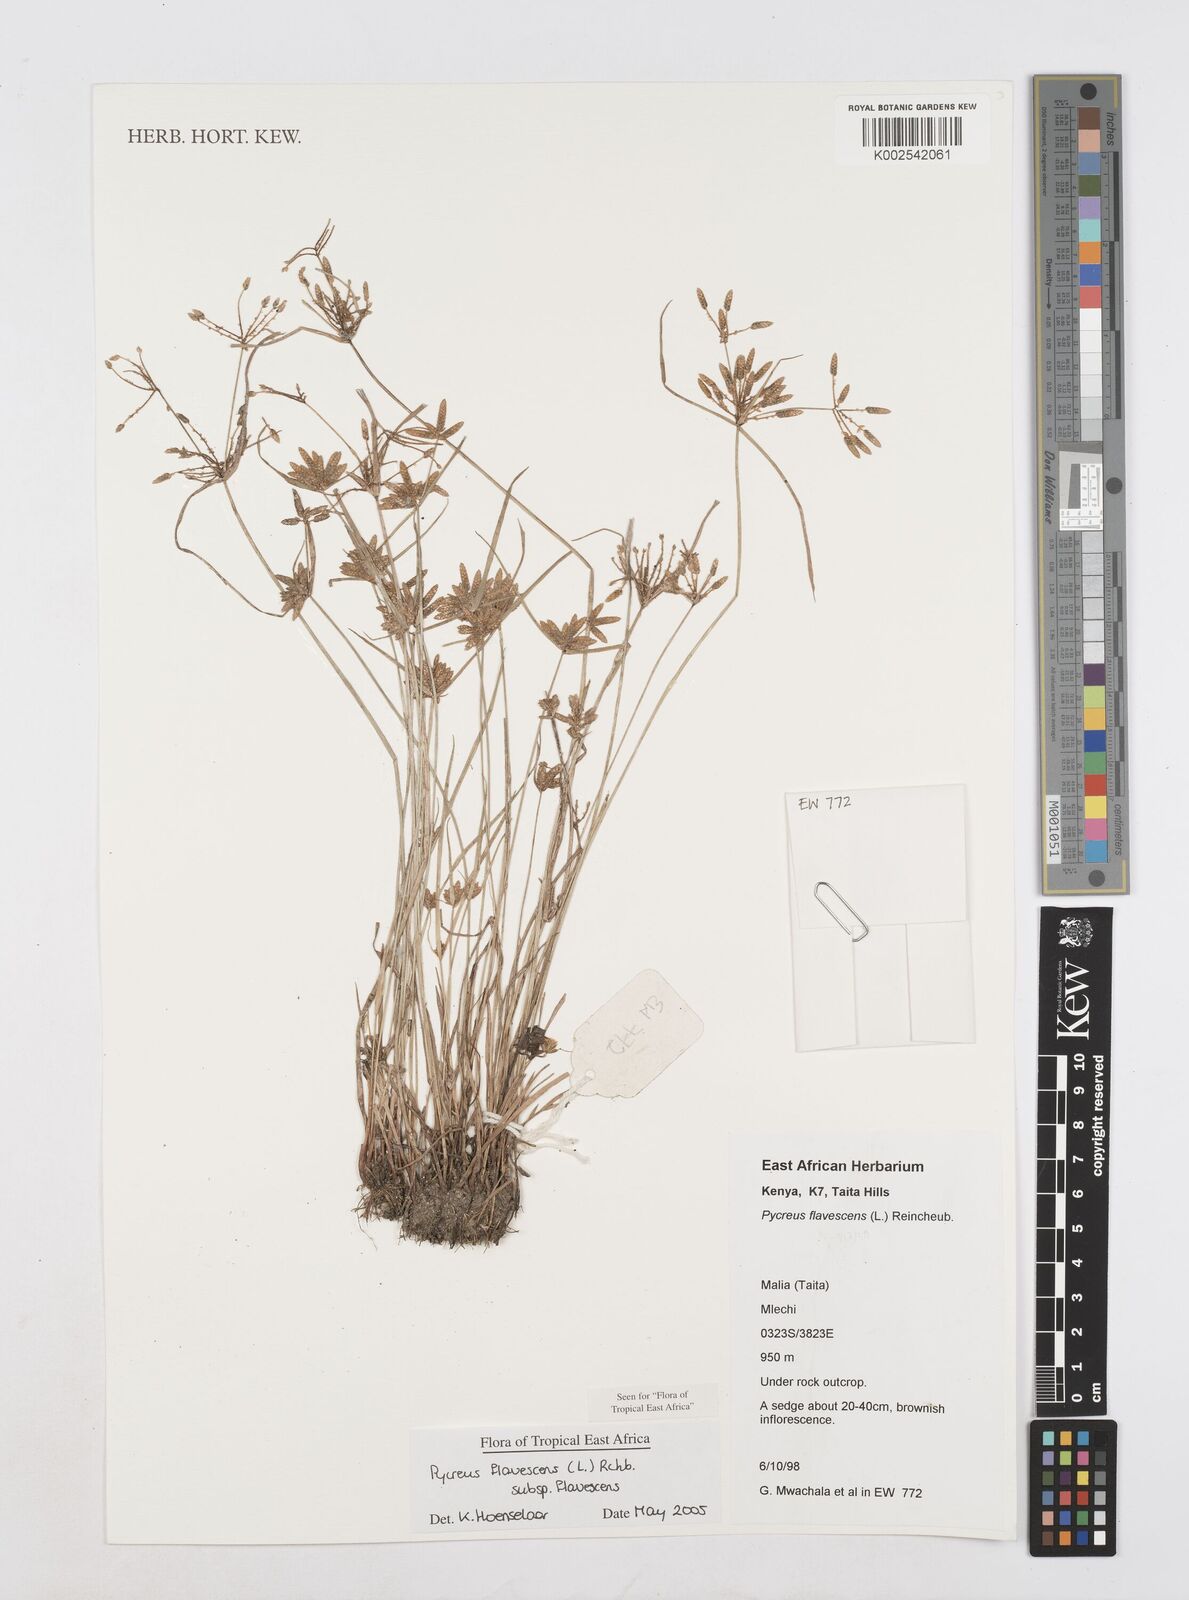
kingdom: Plantae
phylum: Tracheophyta
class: Liliopsida
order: Poales
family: Cyperaceae
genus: Cyperus
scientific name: Cyperus flavescens
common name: Yellow galingale
